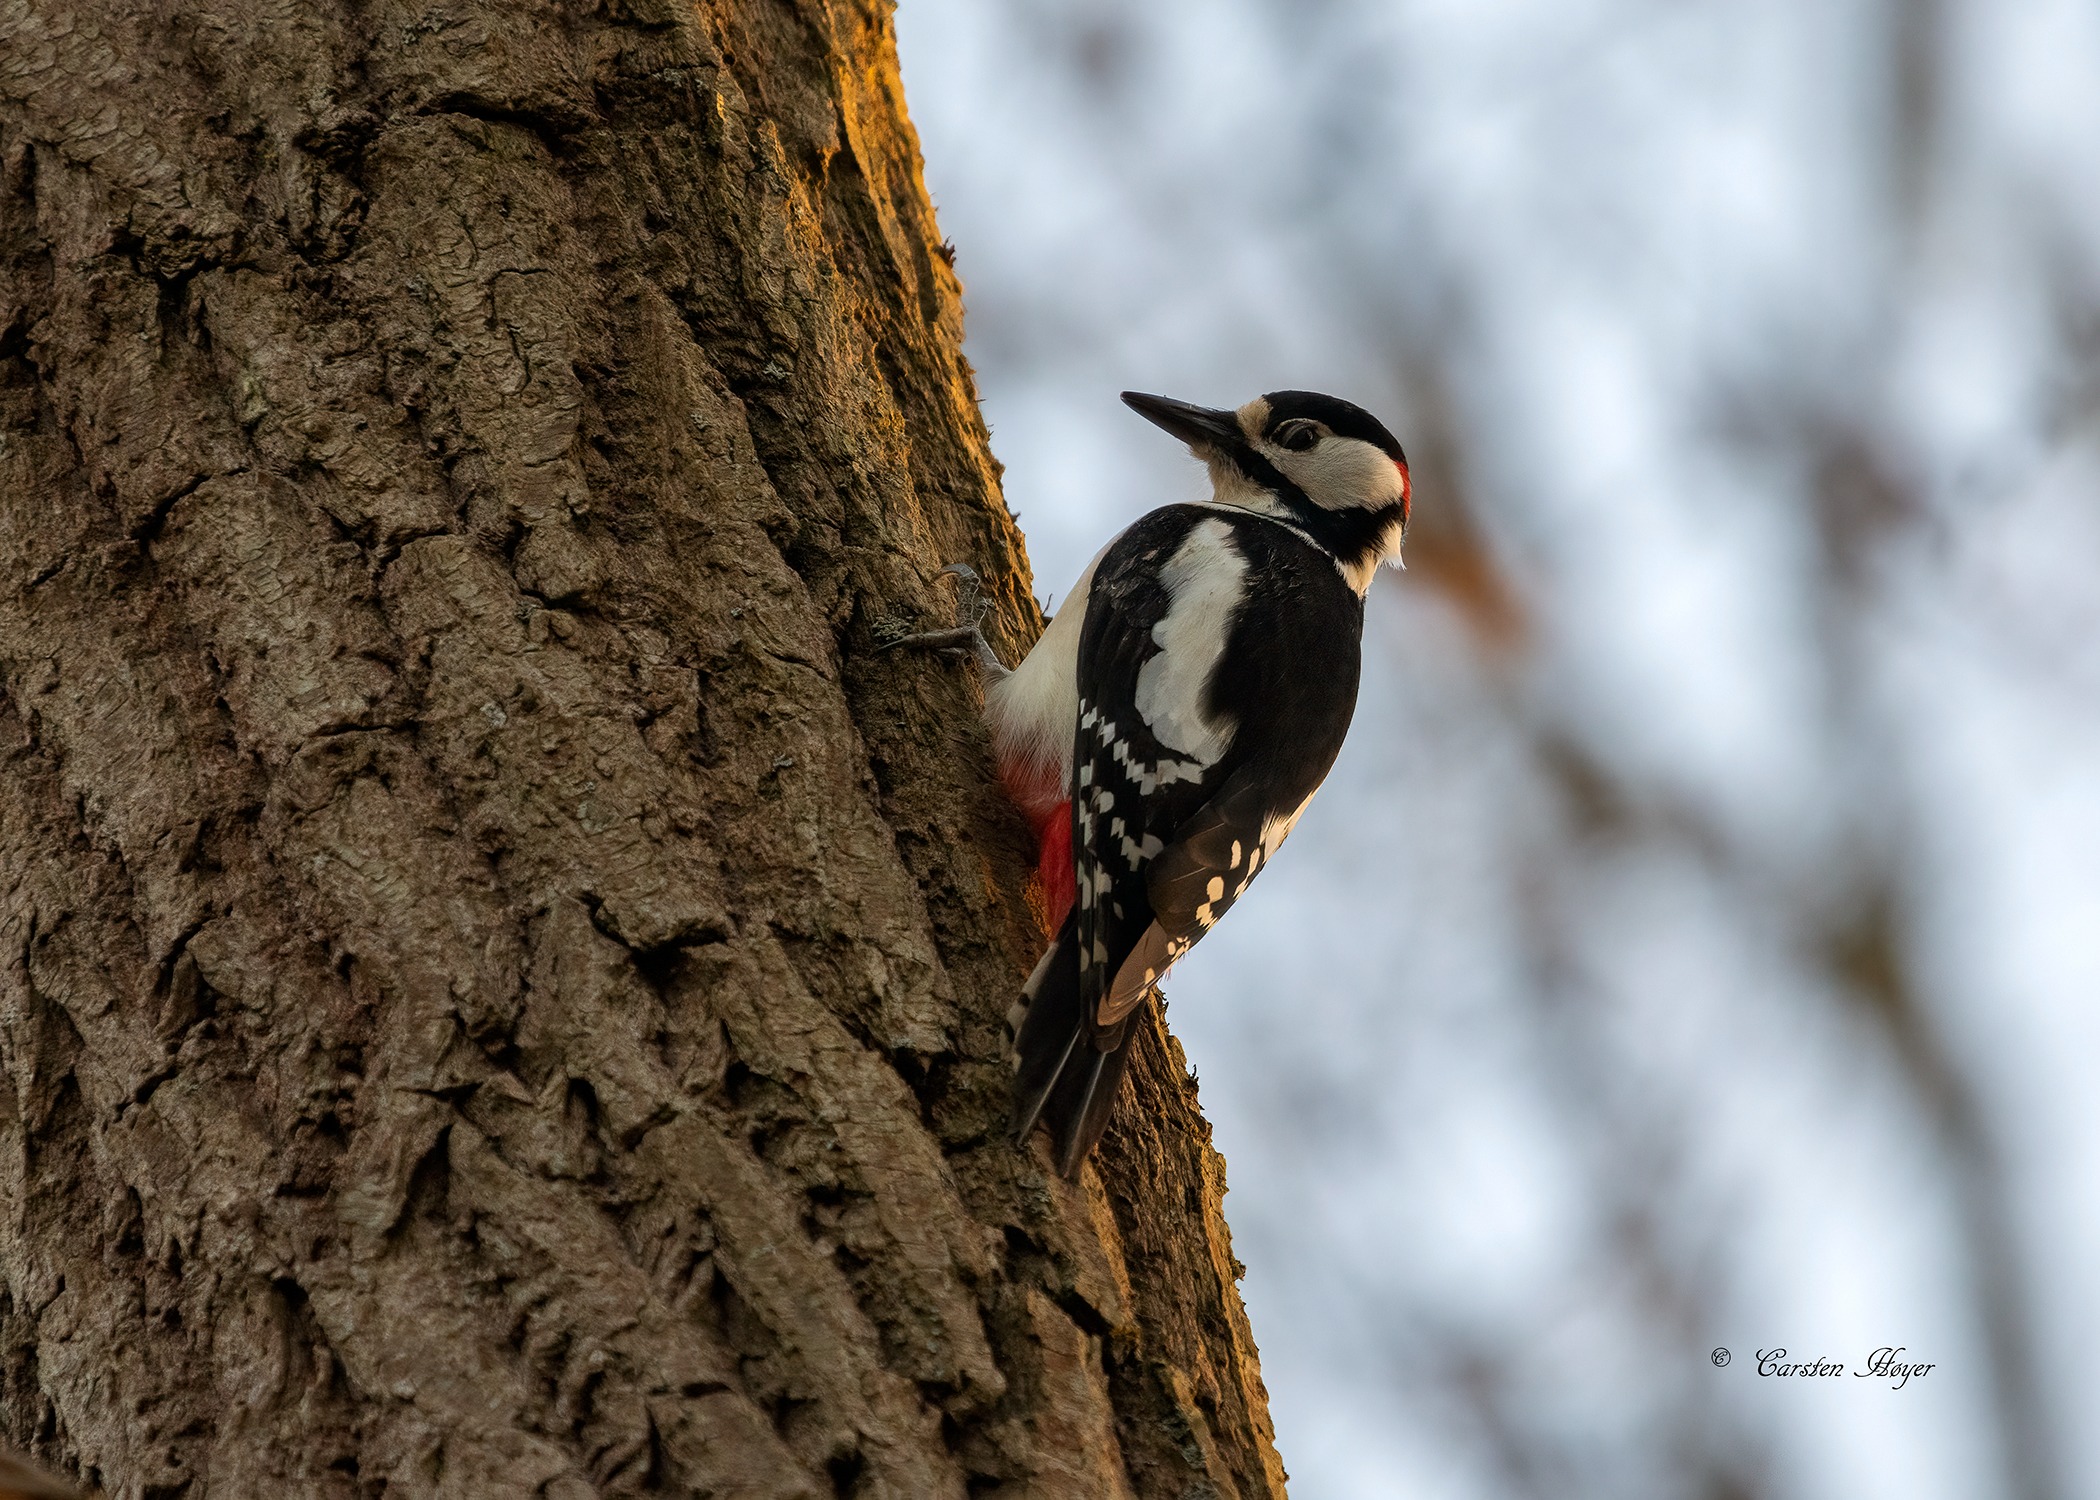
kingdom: Animalia
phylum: Chordata
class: Aves
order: Piciformes
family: Picidae
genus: Dendrocopos
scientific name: Dendrocopos major
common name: Stor flagspætte
